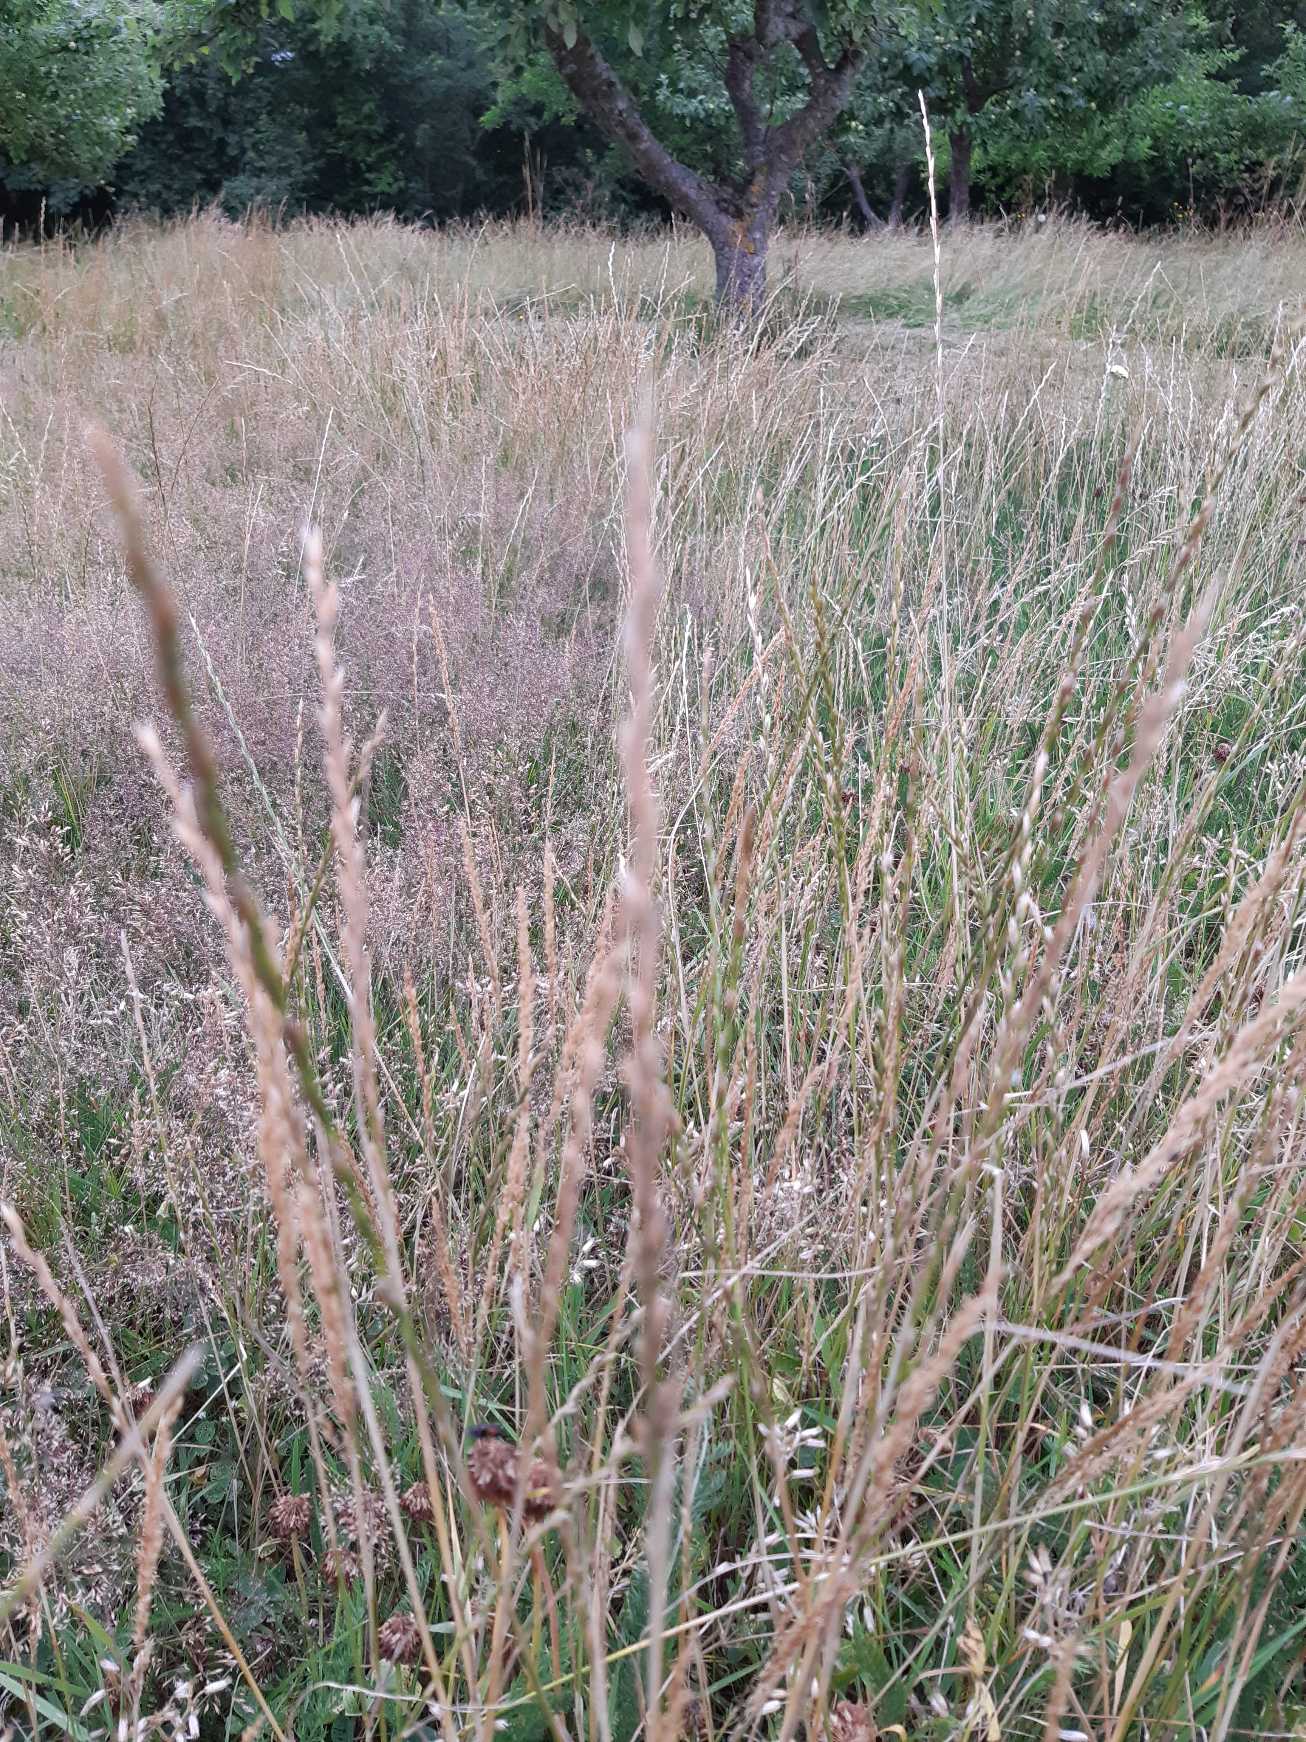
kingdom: Plantae
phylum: Tracheophyta
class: Liliopsida
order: Poales
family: Poaceae
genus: Lolium
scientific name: Lolium perenne
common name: Almindelig rajgræs
